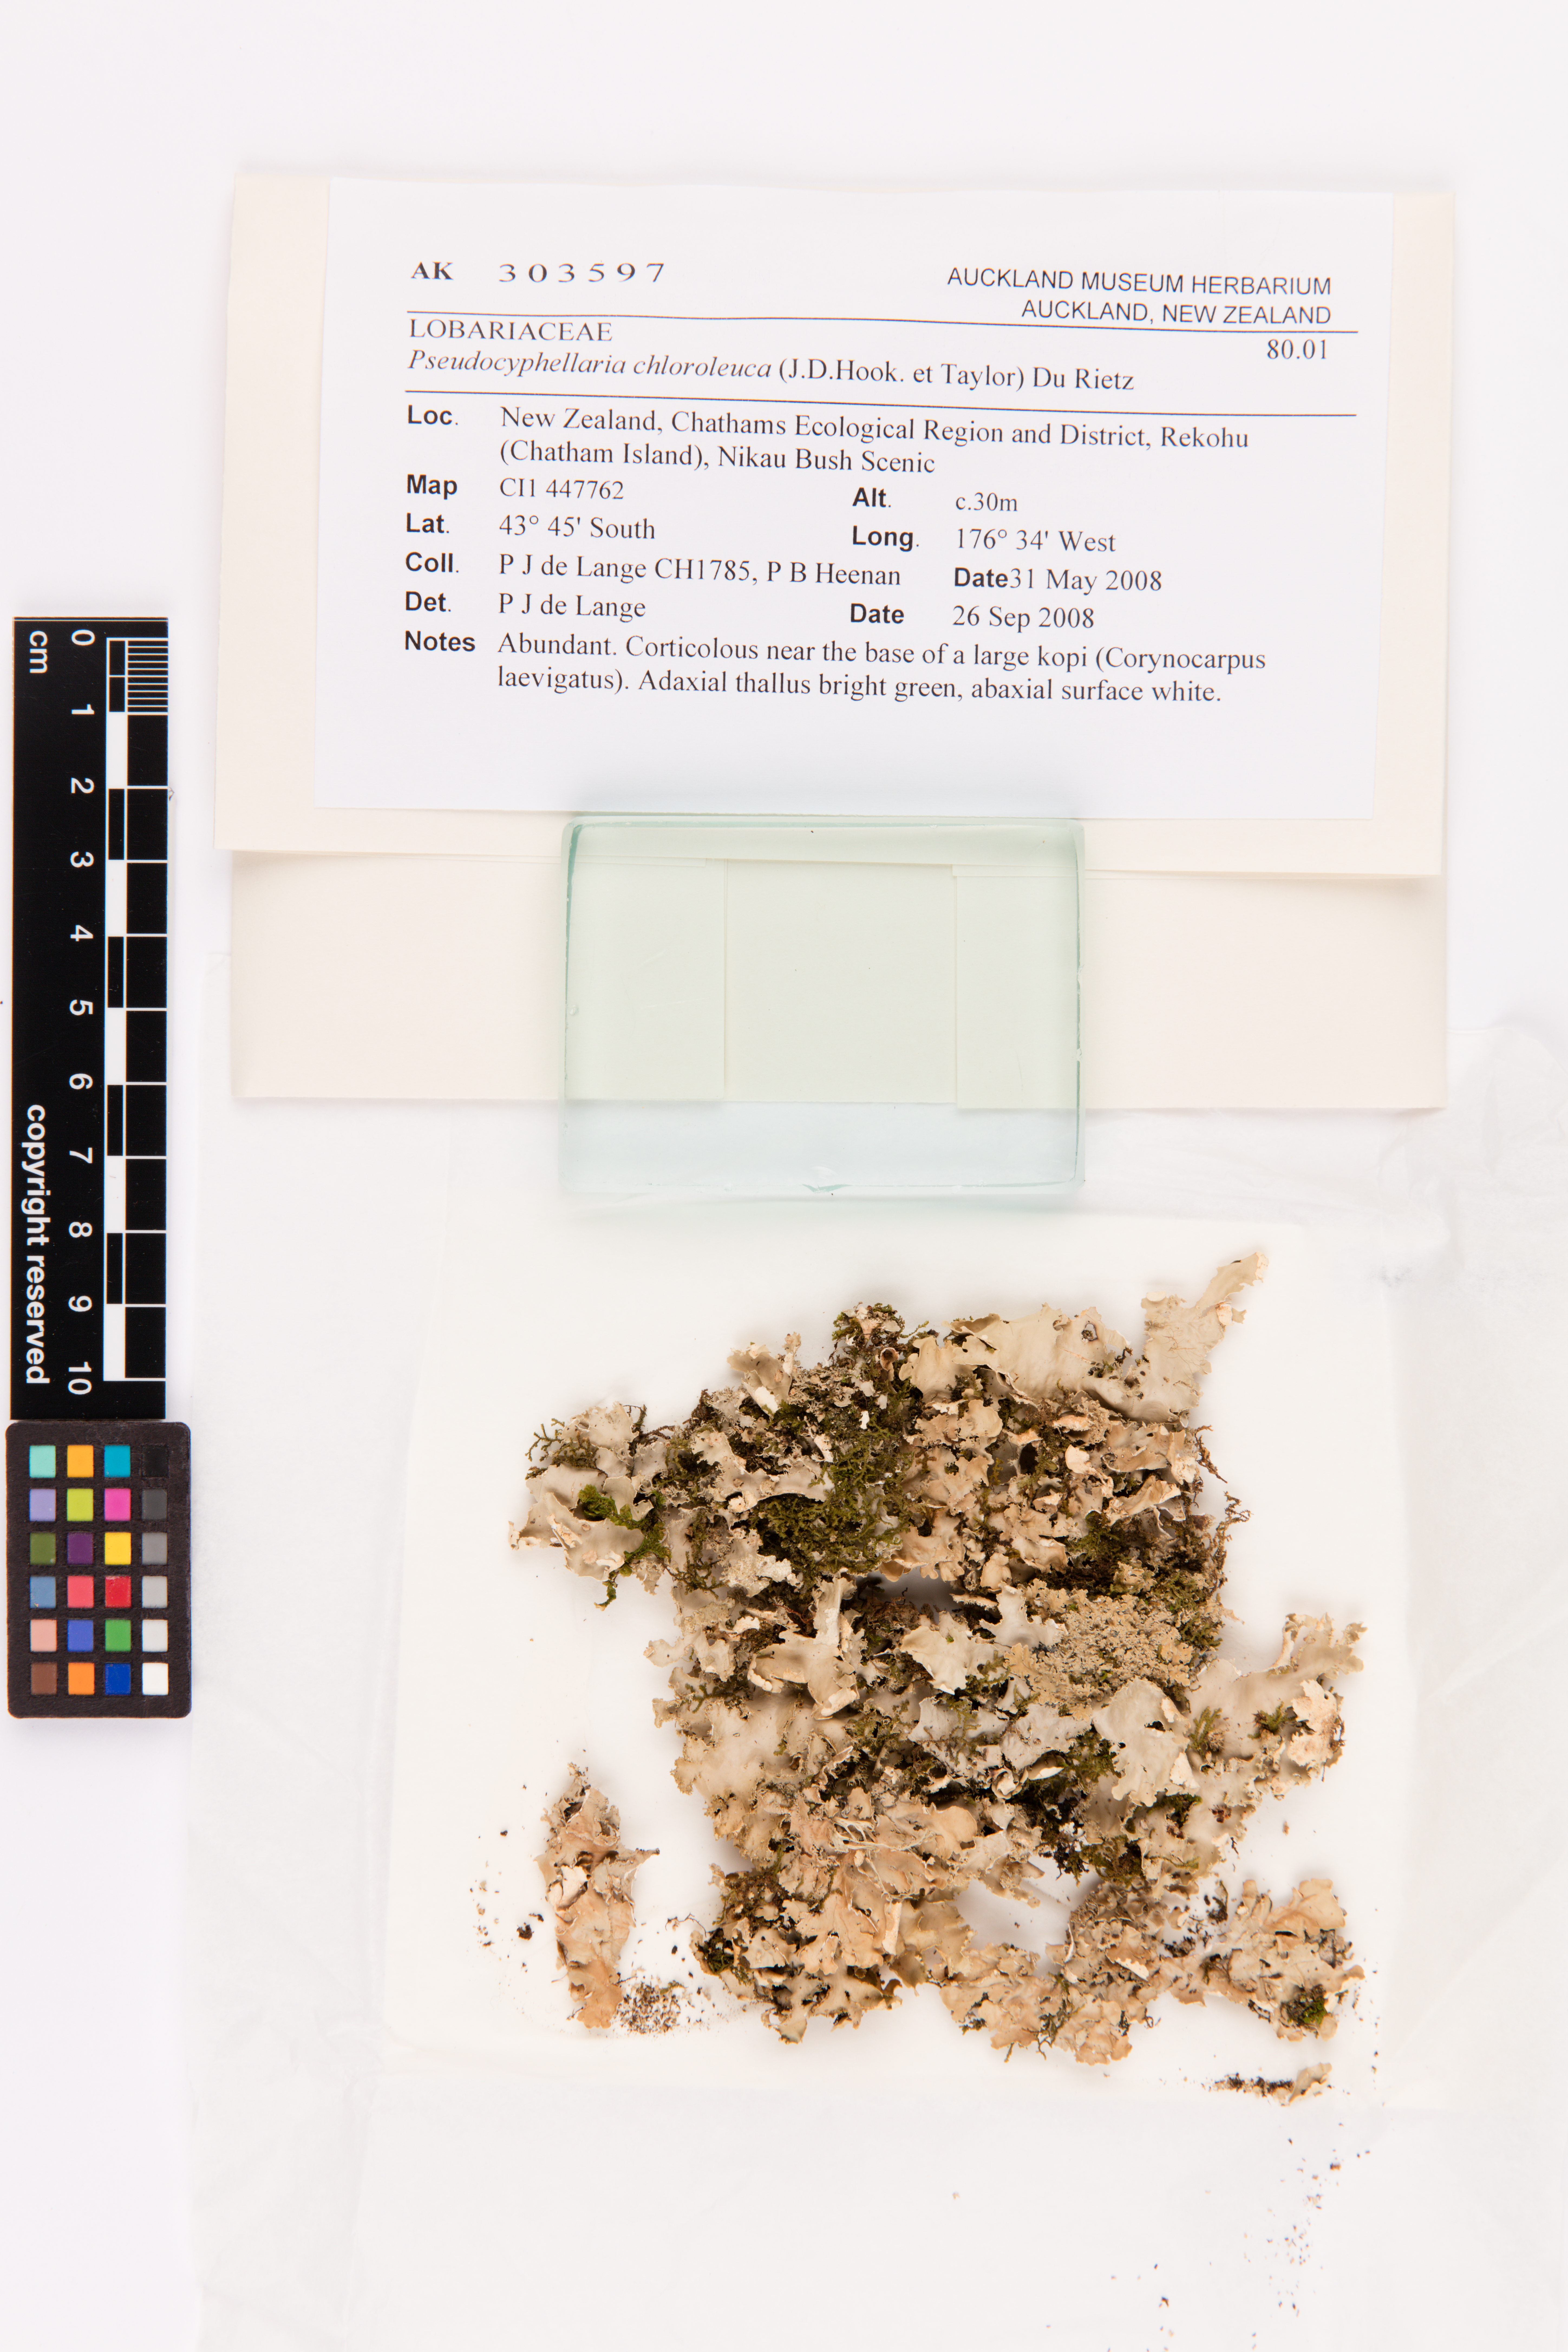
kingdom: Fungi
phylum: Ascomycota
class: Lecanoromycetes
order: Peltigerales
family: Lobariaceae
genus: Pseudocyphellaria
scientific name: Pseudocyphellaria chloroleuca
